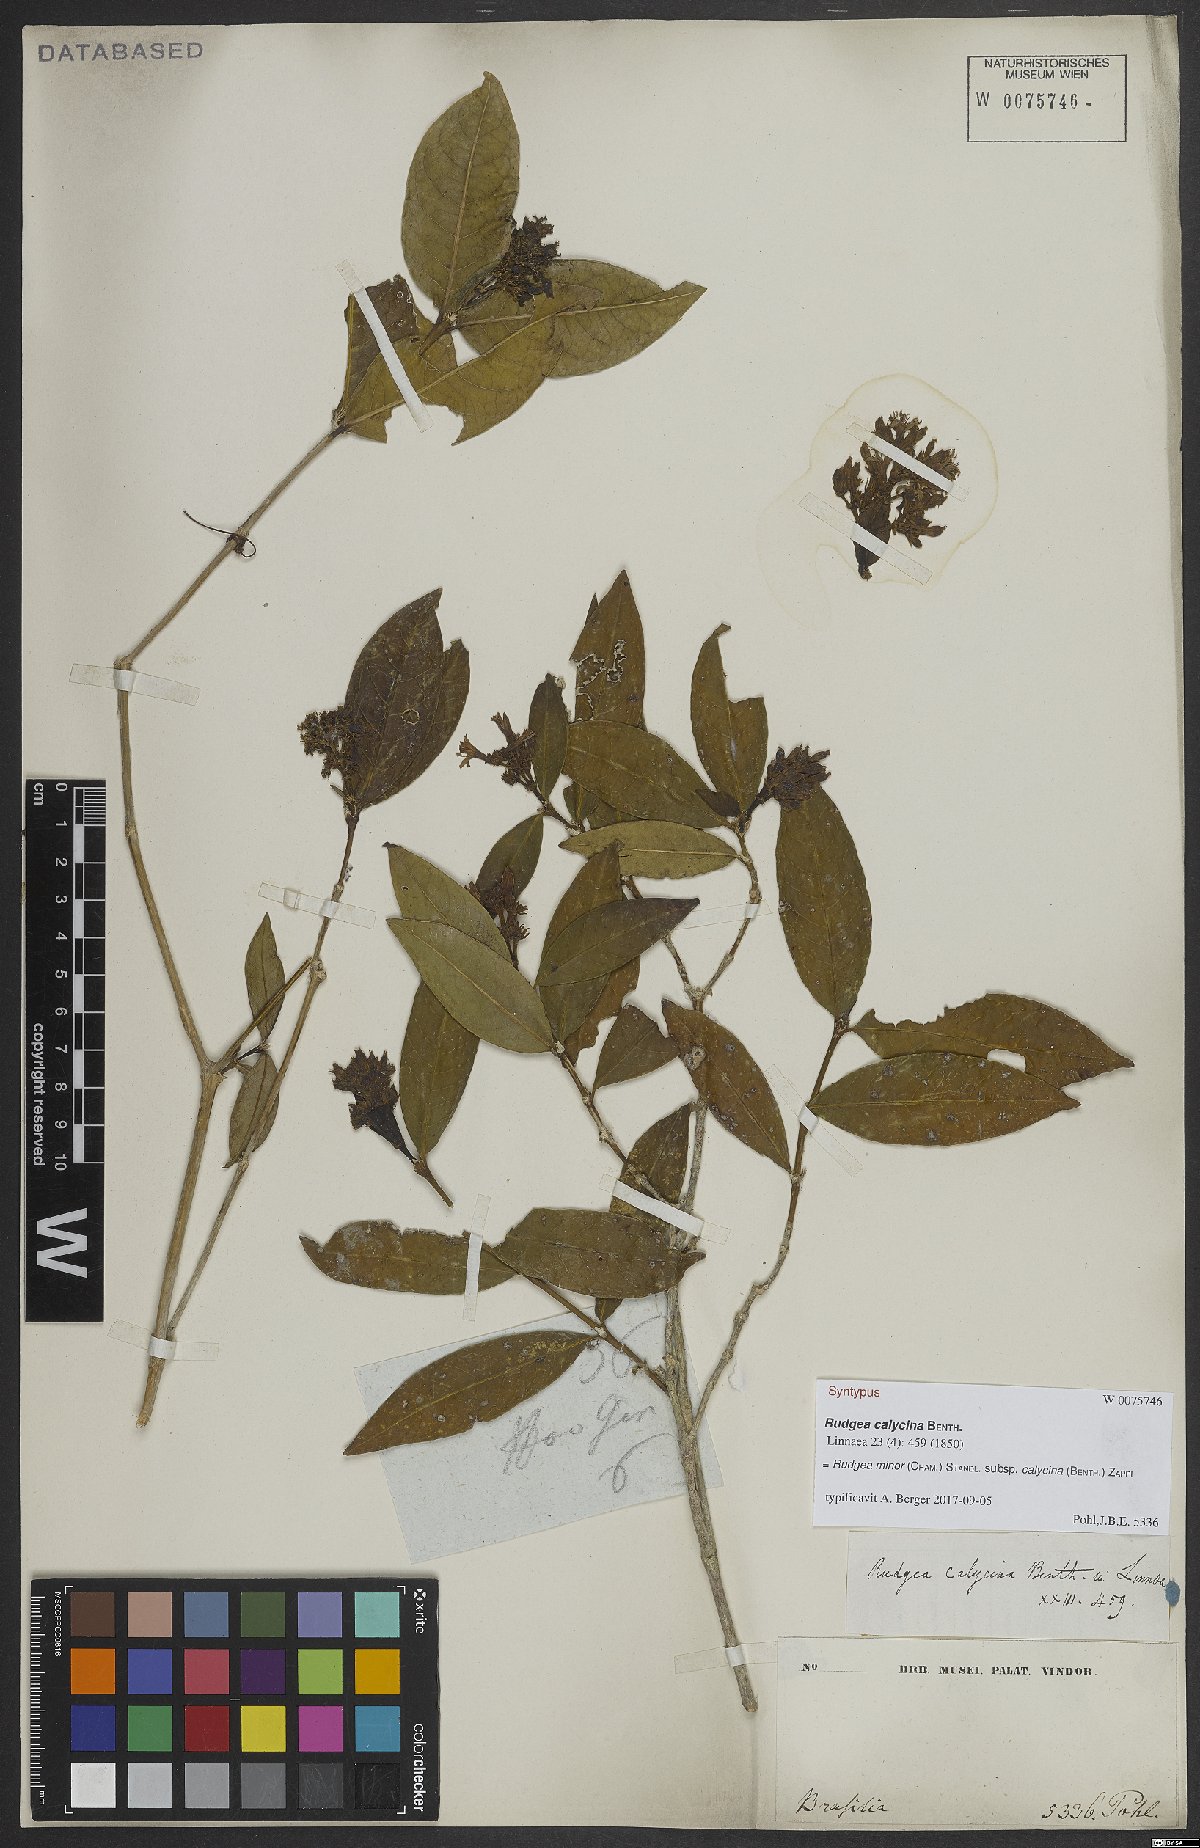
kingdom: Plantae
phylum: Tracheophyta
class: Magnoliopsida
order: Gentianales
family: Rubiaceae
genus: Rudgea
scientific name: Rudgea minor
